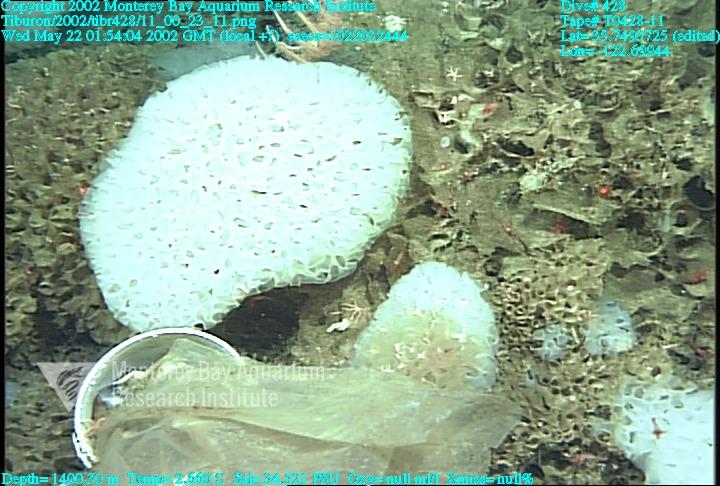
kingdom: Animalia
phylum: Porifera
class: Hexactinellida
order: Sceptrulophora
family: Farreidae
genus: Farrea
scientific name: Farrea occa
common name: Reversed glass sponge
